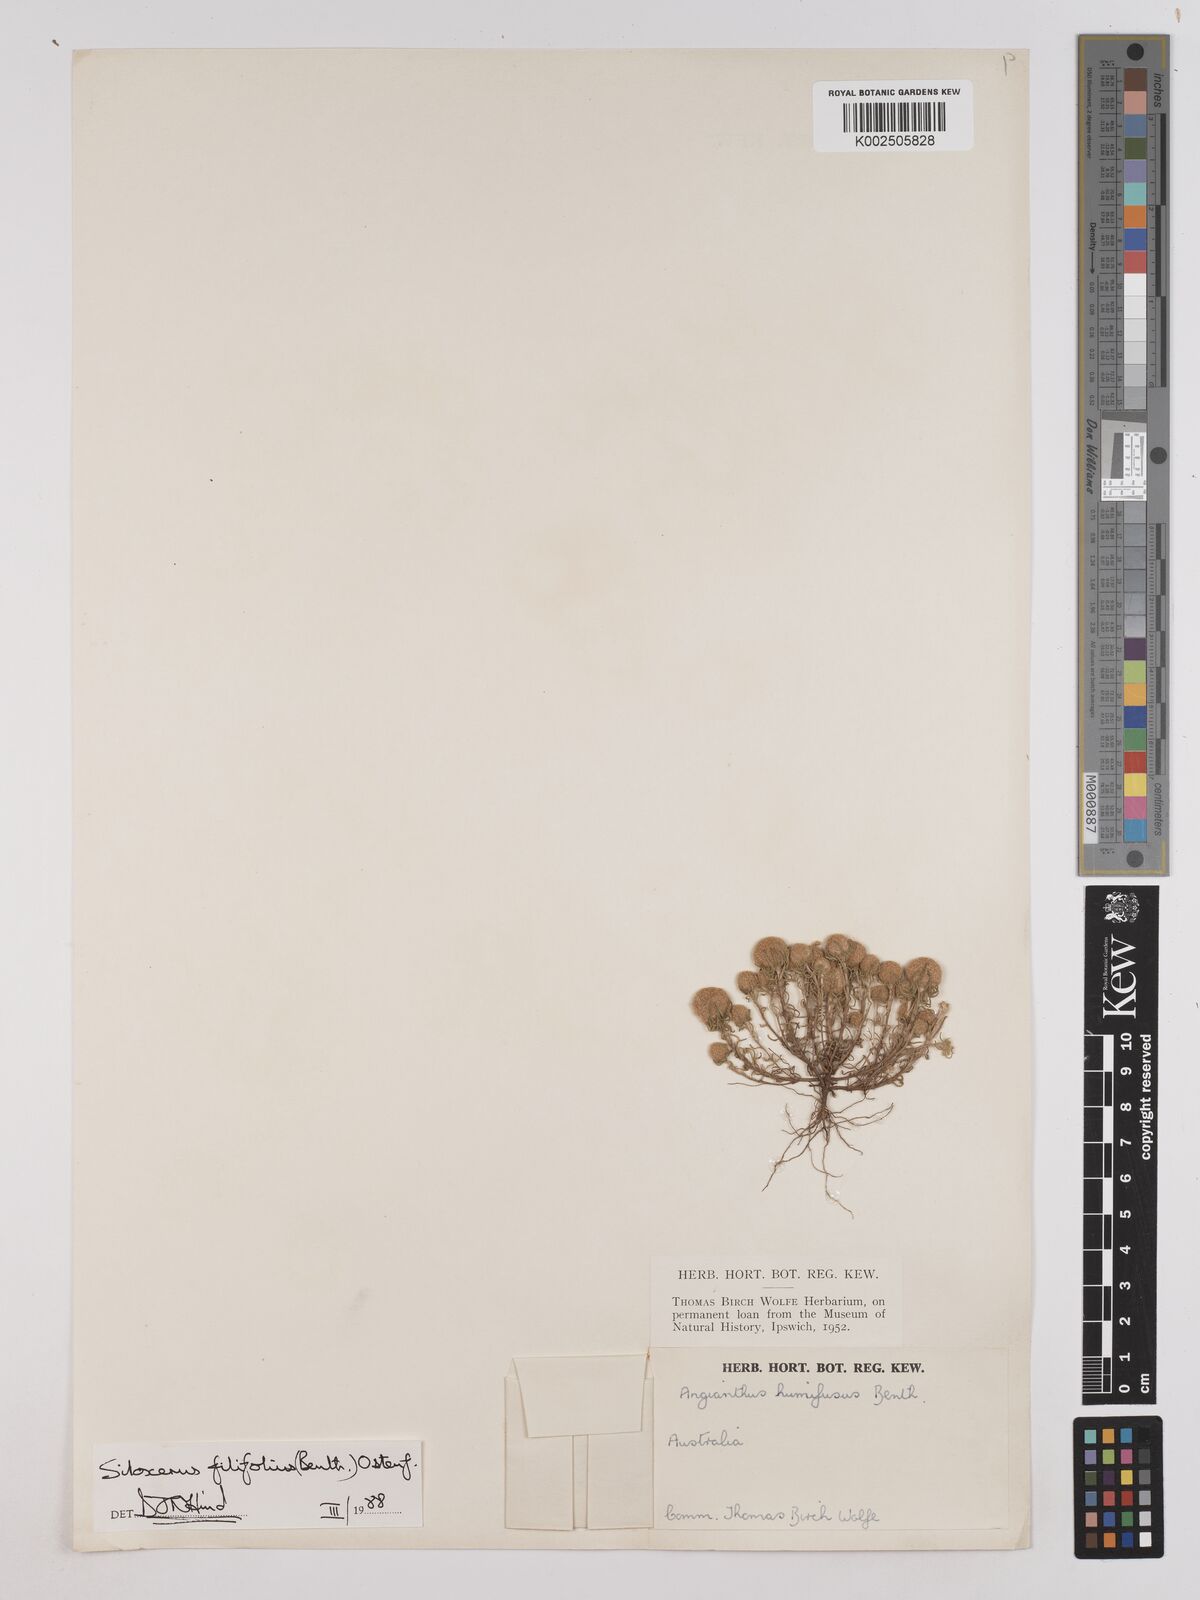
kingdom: Plantae
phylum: Tracheophyta
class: Magnoliopsida
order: Asterales
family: Asteraceae
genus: Siloxerus
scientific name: Siloxerus filifolius
